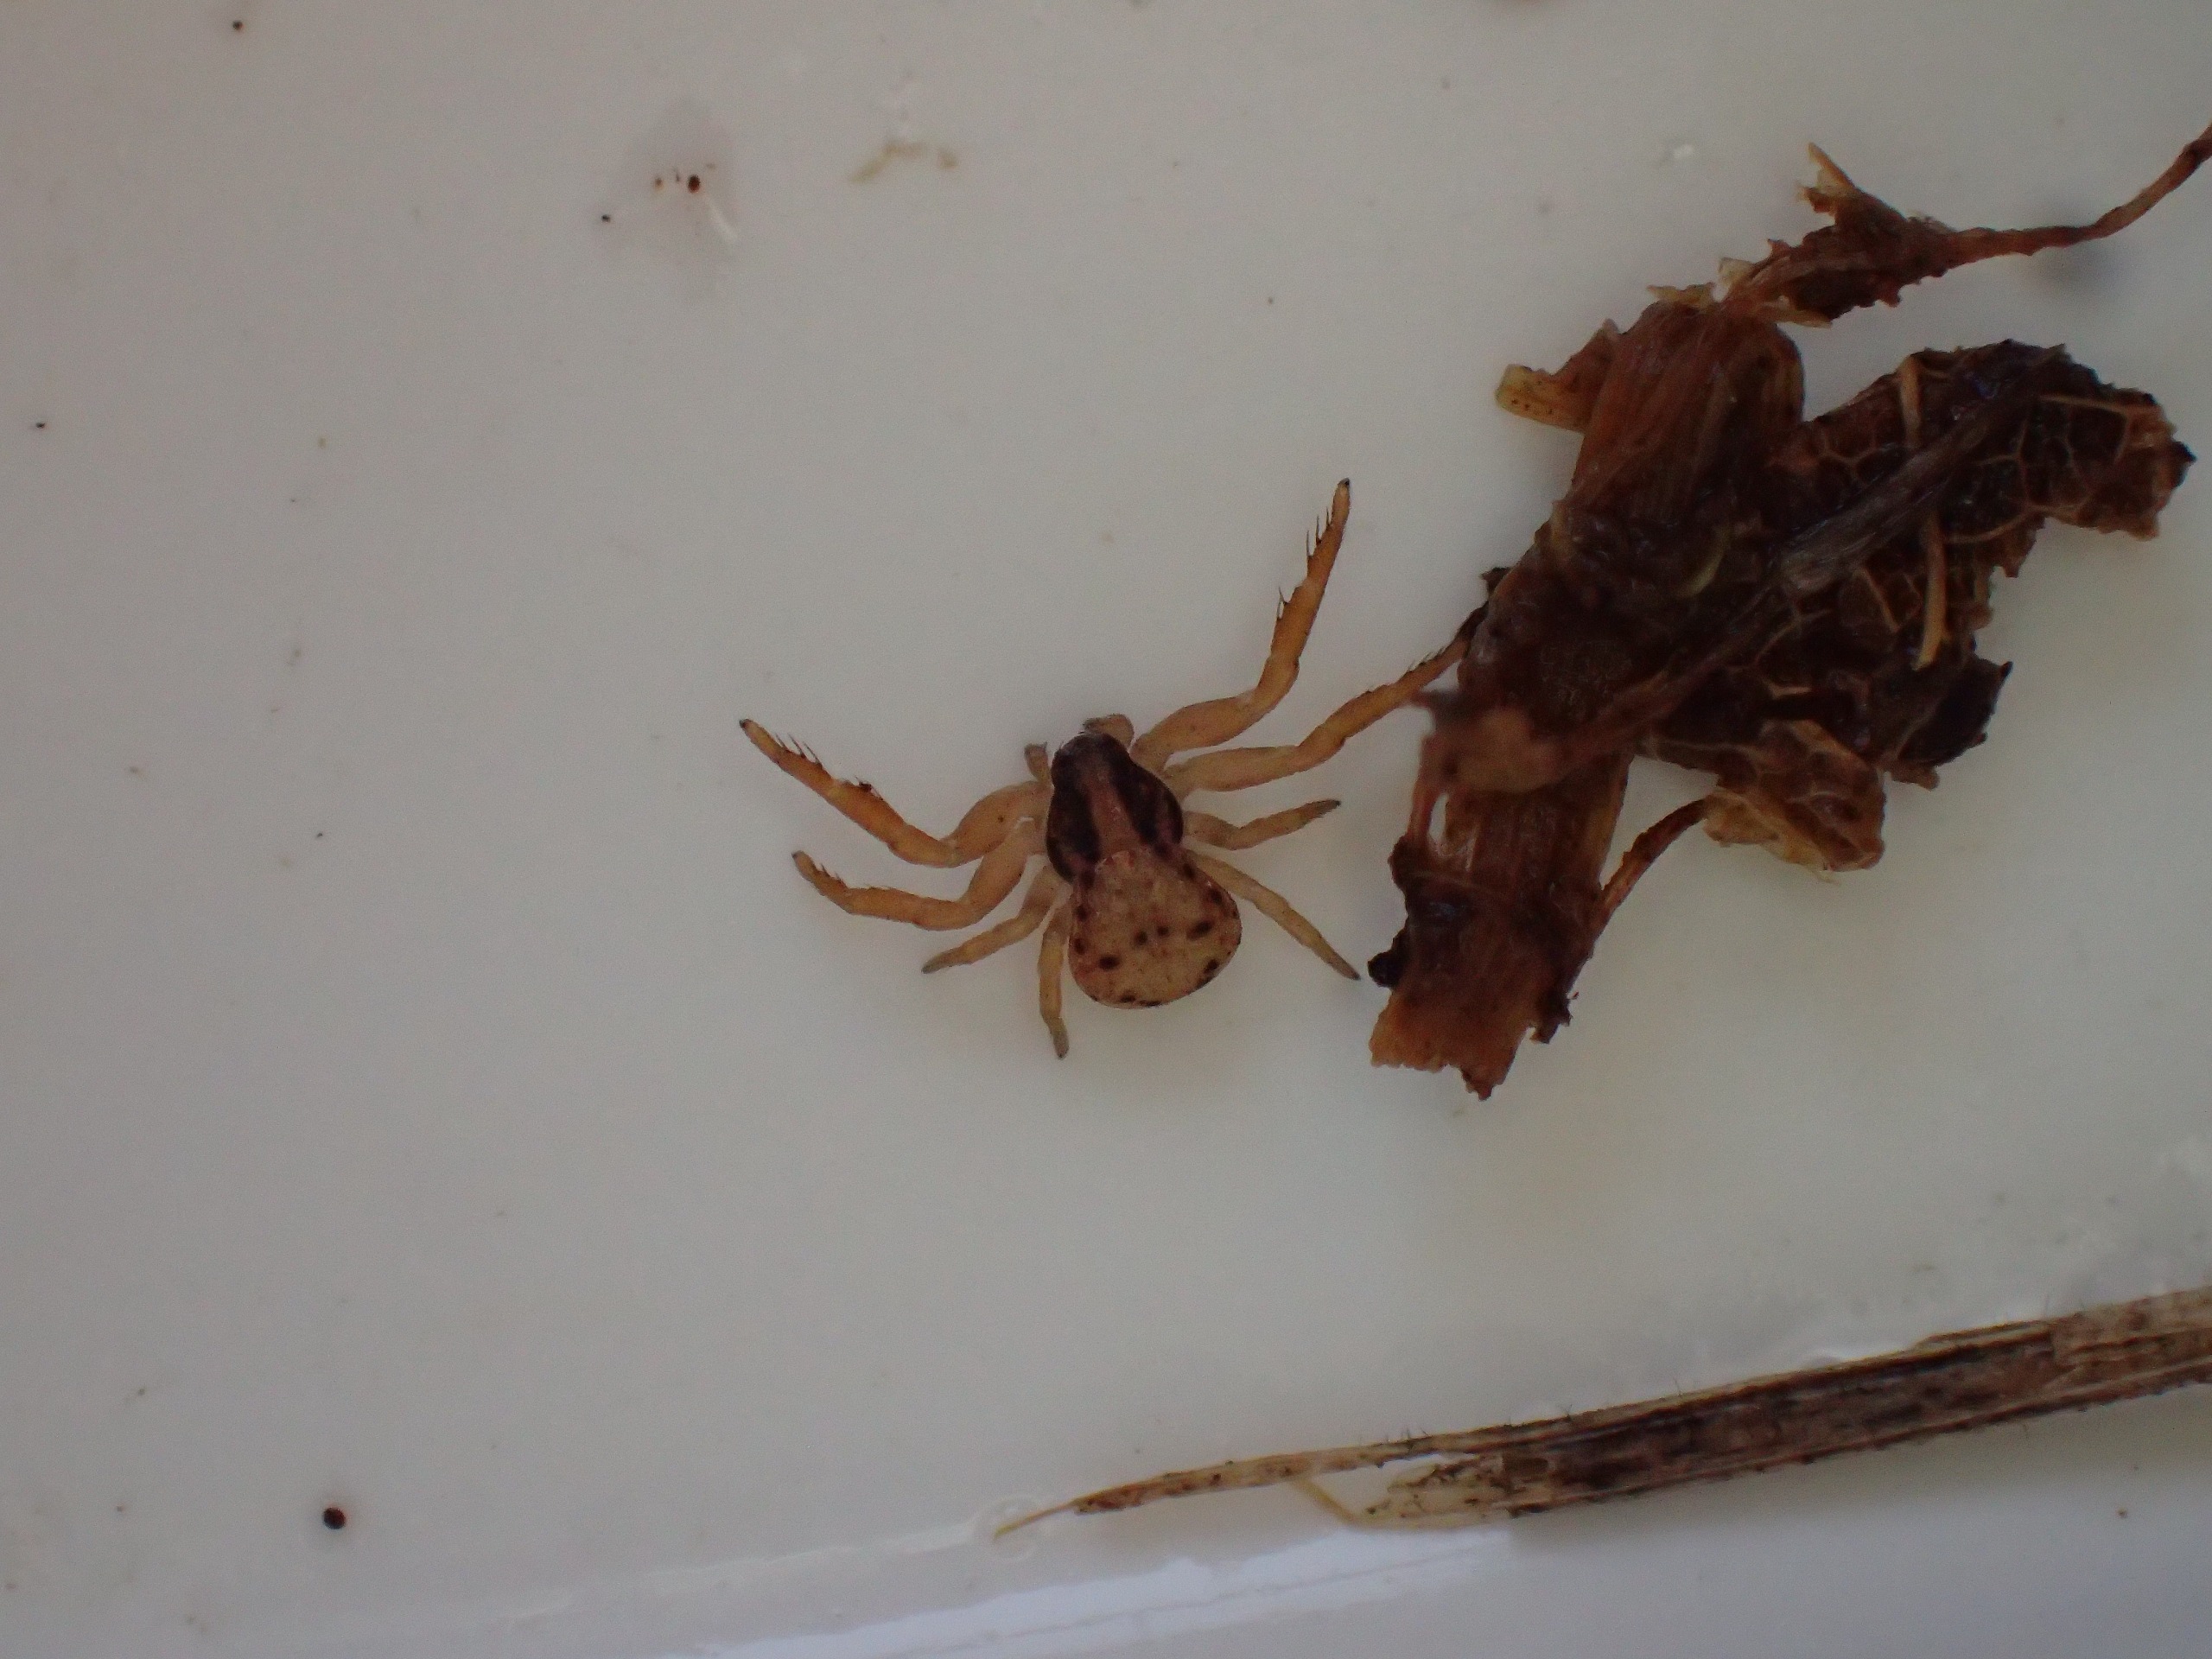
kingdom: Animalia
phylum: Arthropoda
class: Arachnida
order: Araneae
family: Thomisidae
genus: Ozyptila
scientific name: Ozyptila atomaria
